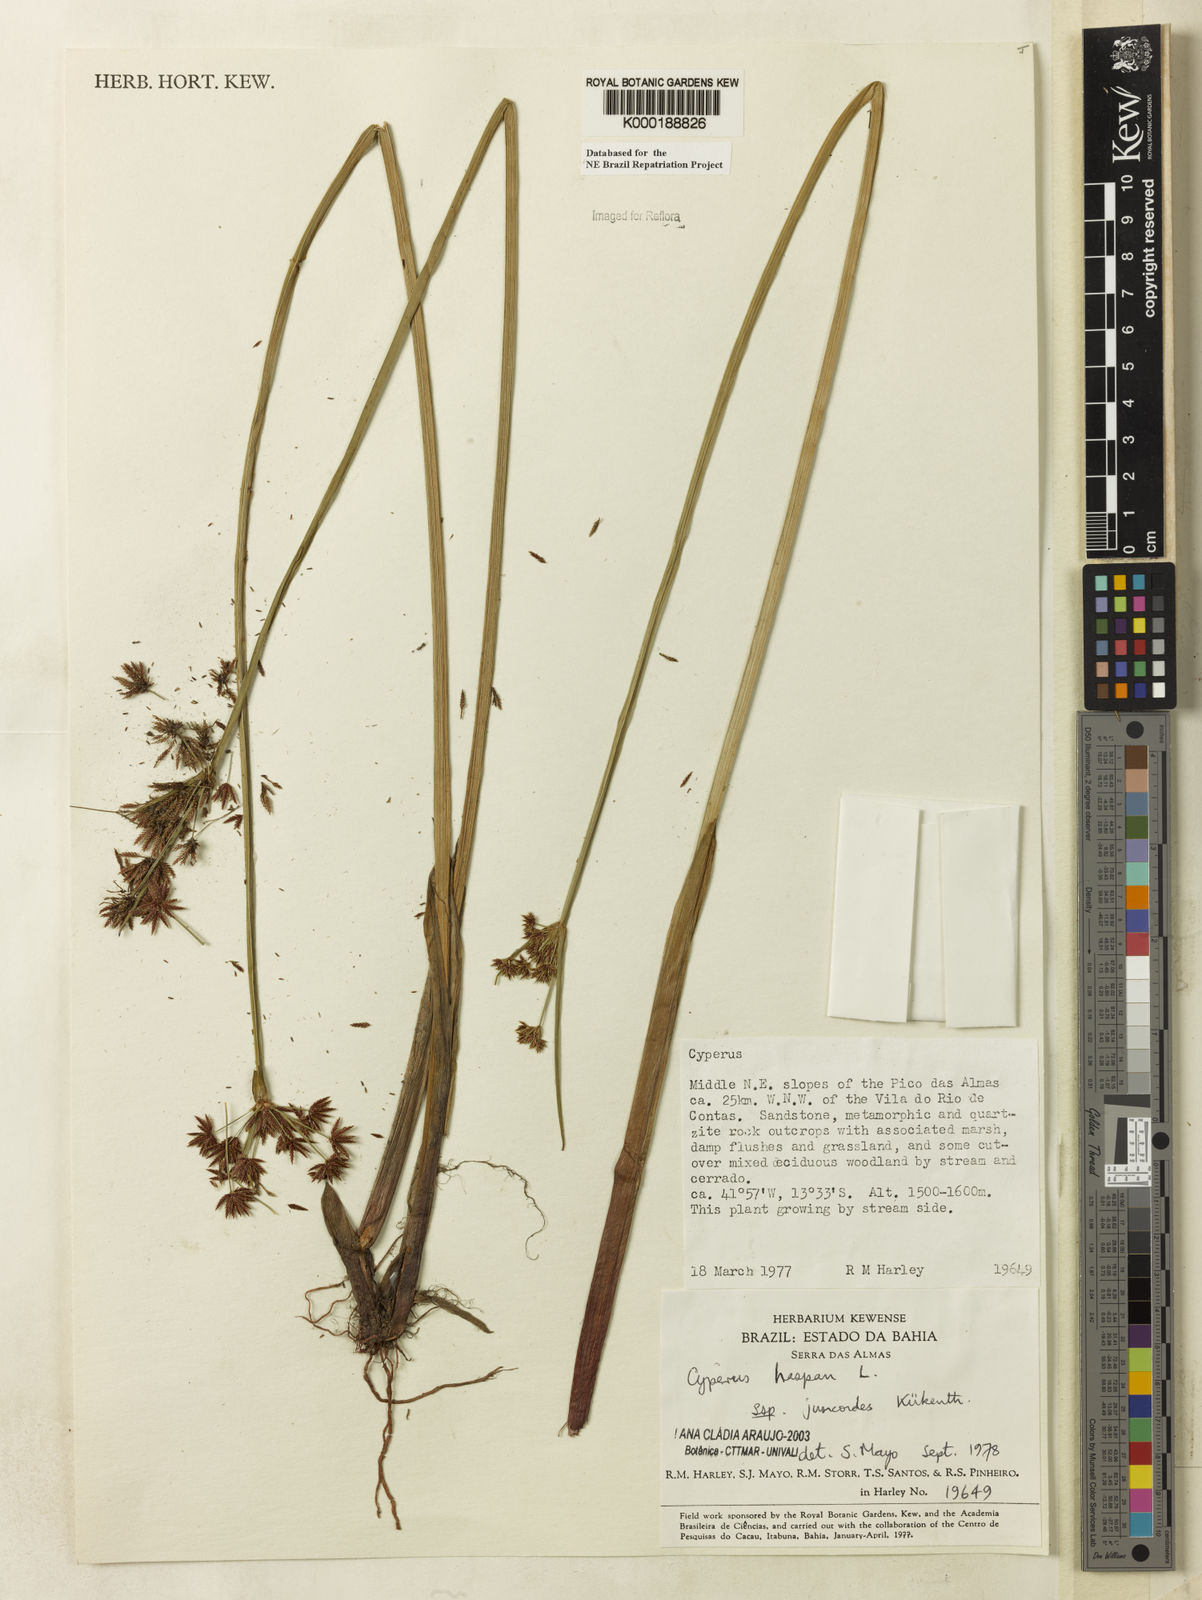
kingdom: Plantae
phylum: Tracheophyta
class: Liliopsida
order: Poales
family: Cyperaceae
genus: Cyperus
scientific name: Cyperus haspan
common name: Haspan flatsedge
